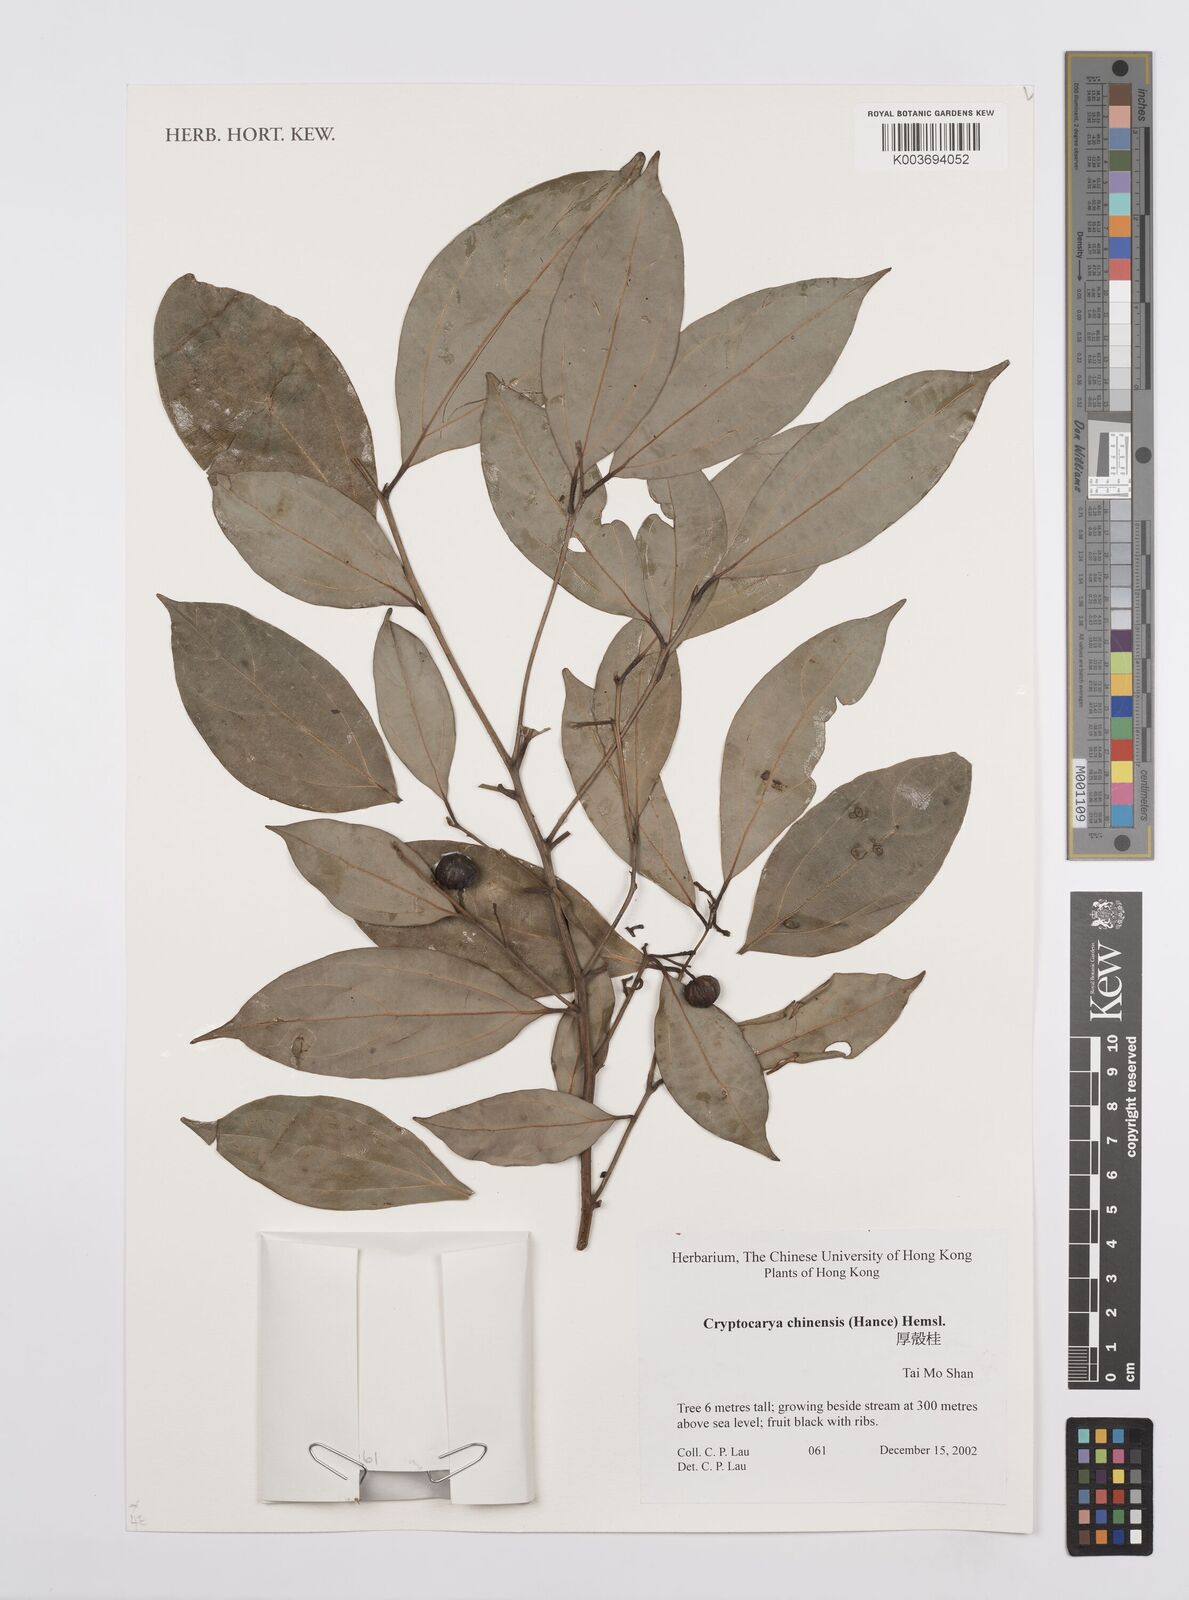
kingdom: Plantae
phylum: Tracheophyta
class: Magnoliopsida
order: Laurales
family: Lauraceae
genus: Cryptocarya
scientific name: Cryptocarya chinensis
